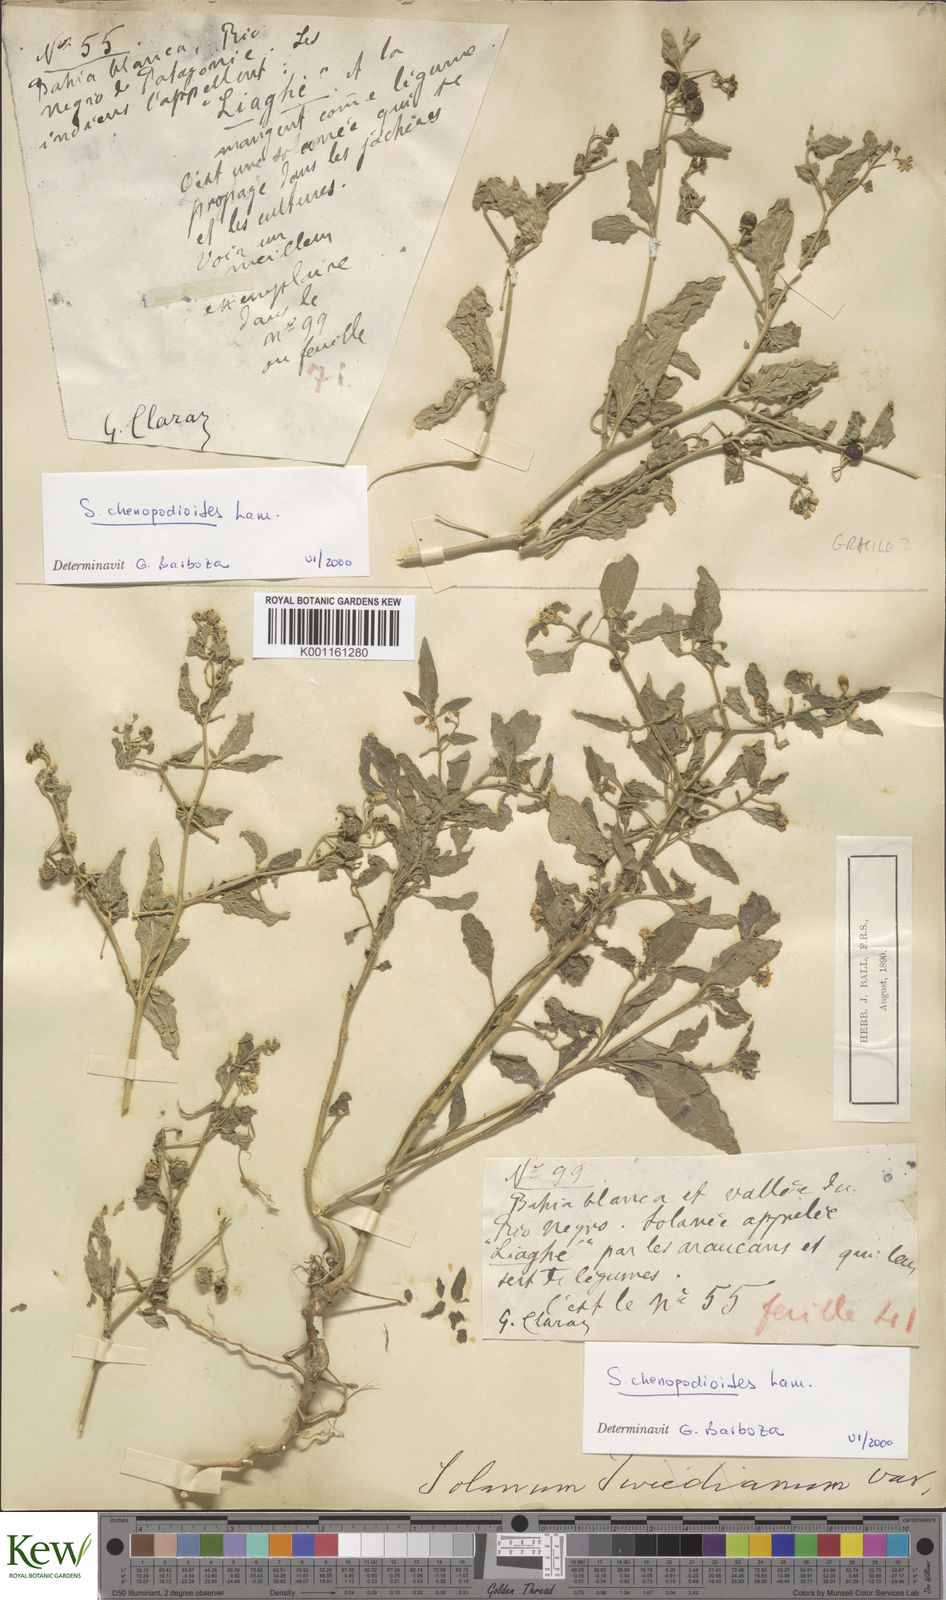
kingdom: Plantae
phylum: Tracheophyta
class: Magnoliopsida
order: Solanales
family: Solanaceae
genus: Solanum
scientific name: Solanum chenopodioides
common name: Tall nightshade
